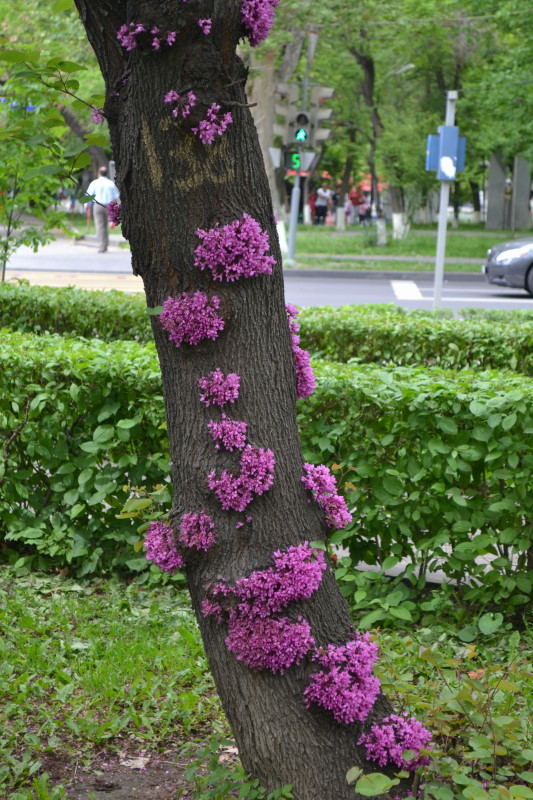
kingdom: Plantae
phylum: Tracheophyta
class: Magnoliopsida
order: Fabales
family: Fabaceae
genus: Cercis
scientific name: Cercis siliquastrum
